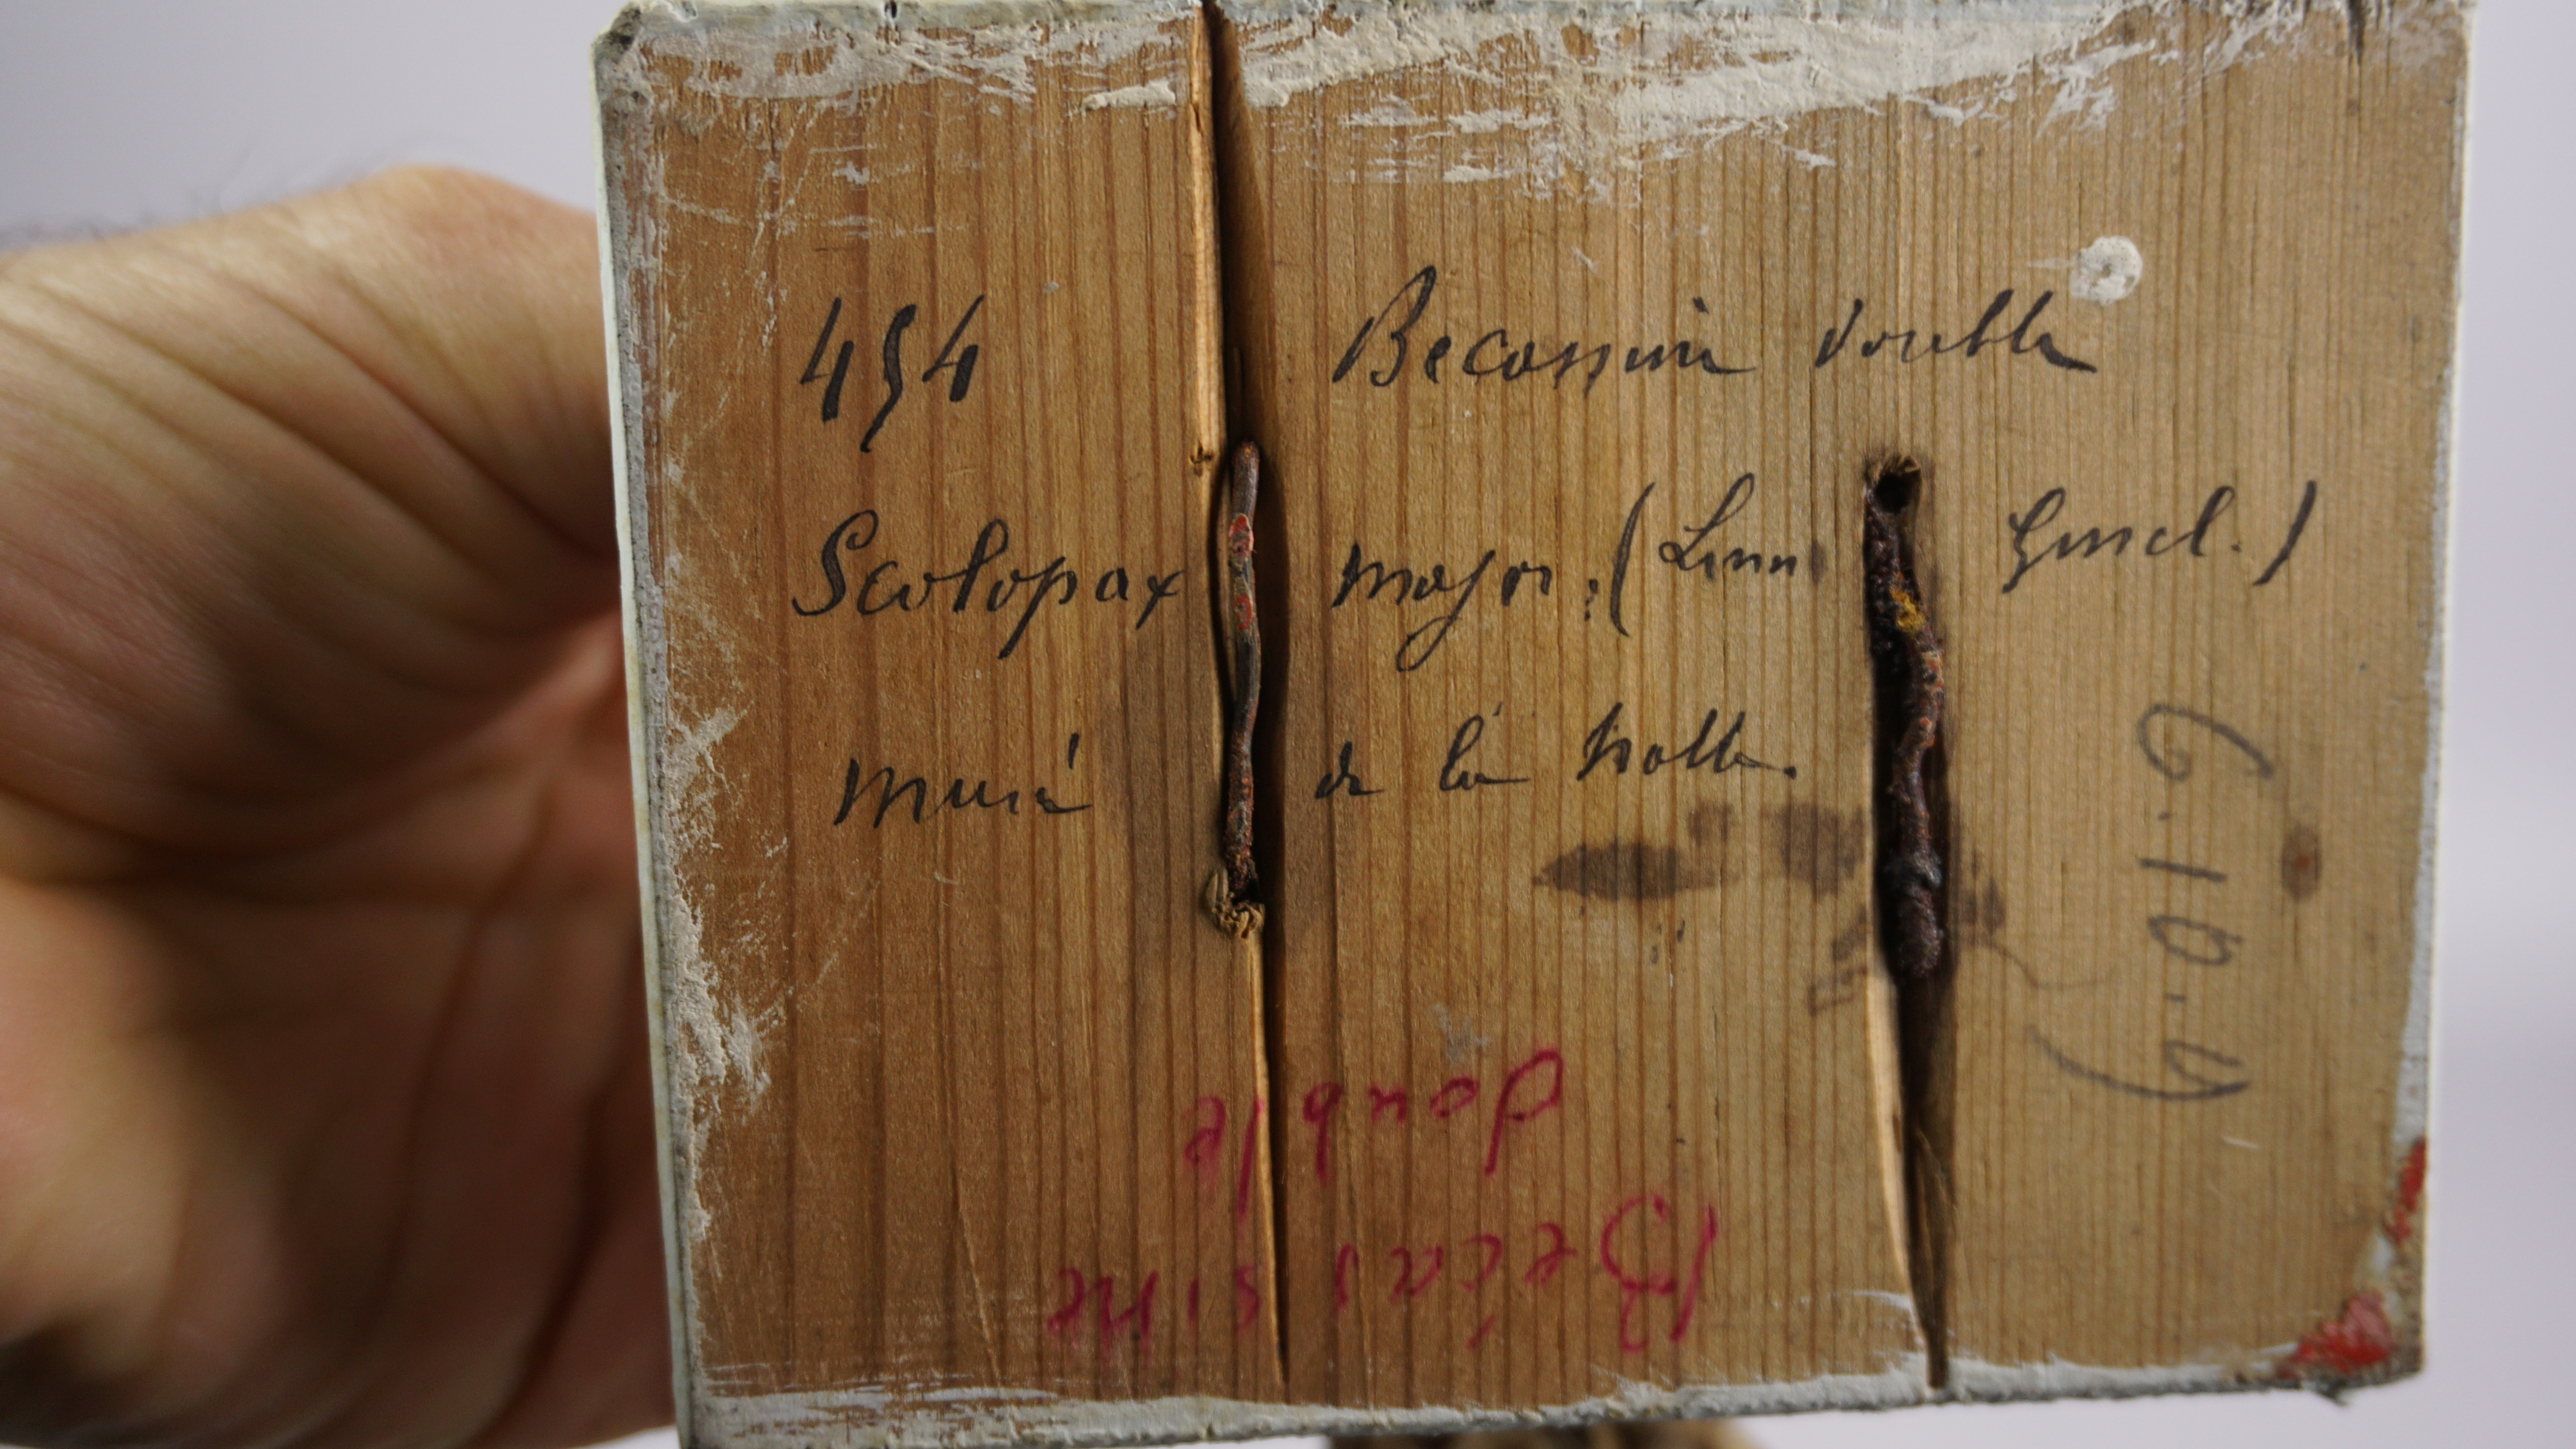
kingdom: Animalia
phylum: Chordata
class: Aves
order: Charadriiformes
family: Scolopacidae
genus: Gallinago
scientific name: Gallinago media
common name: Great snipe
